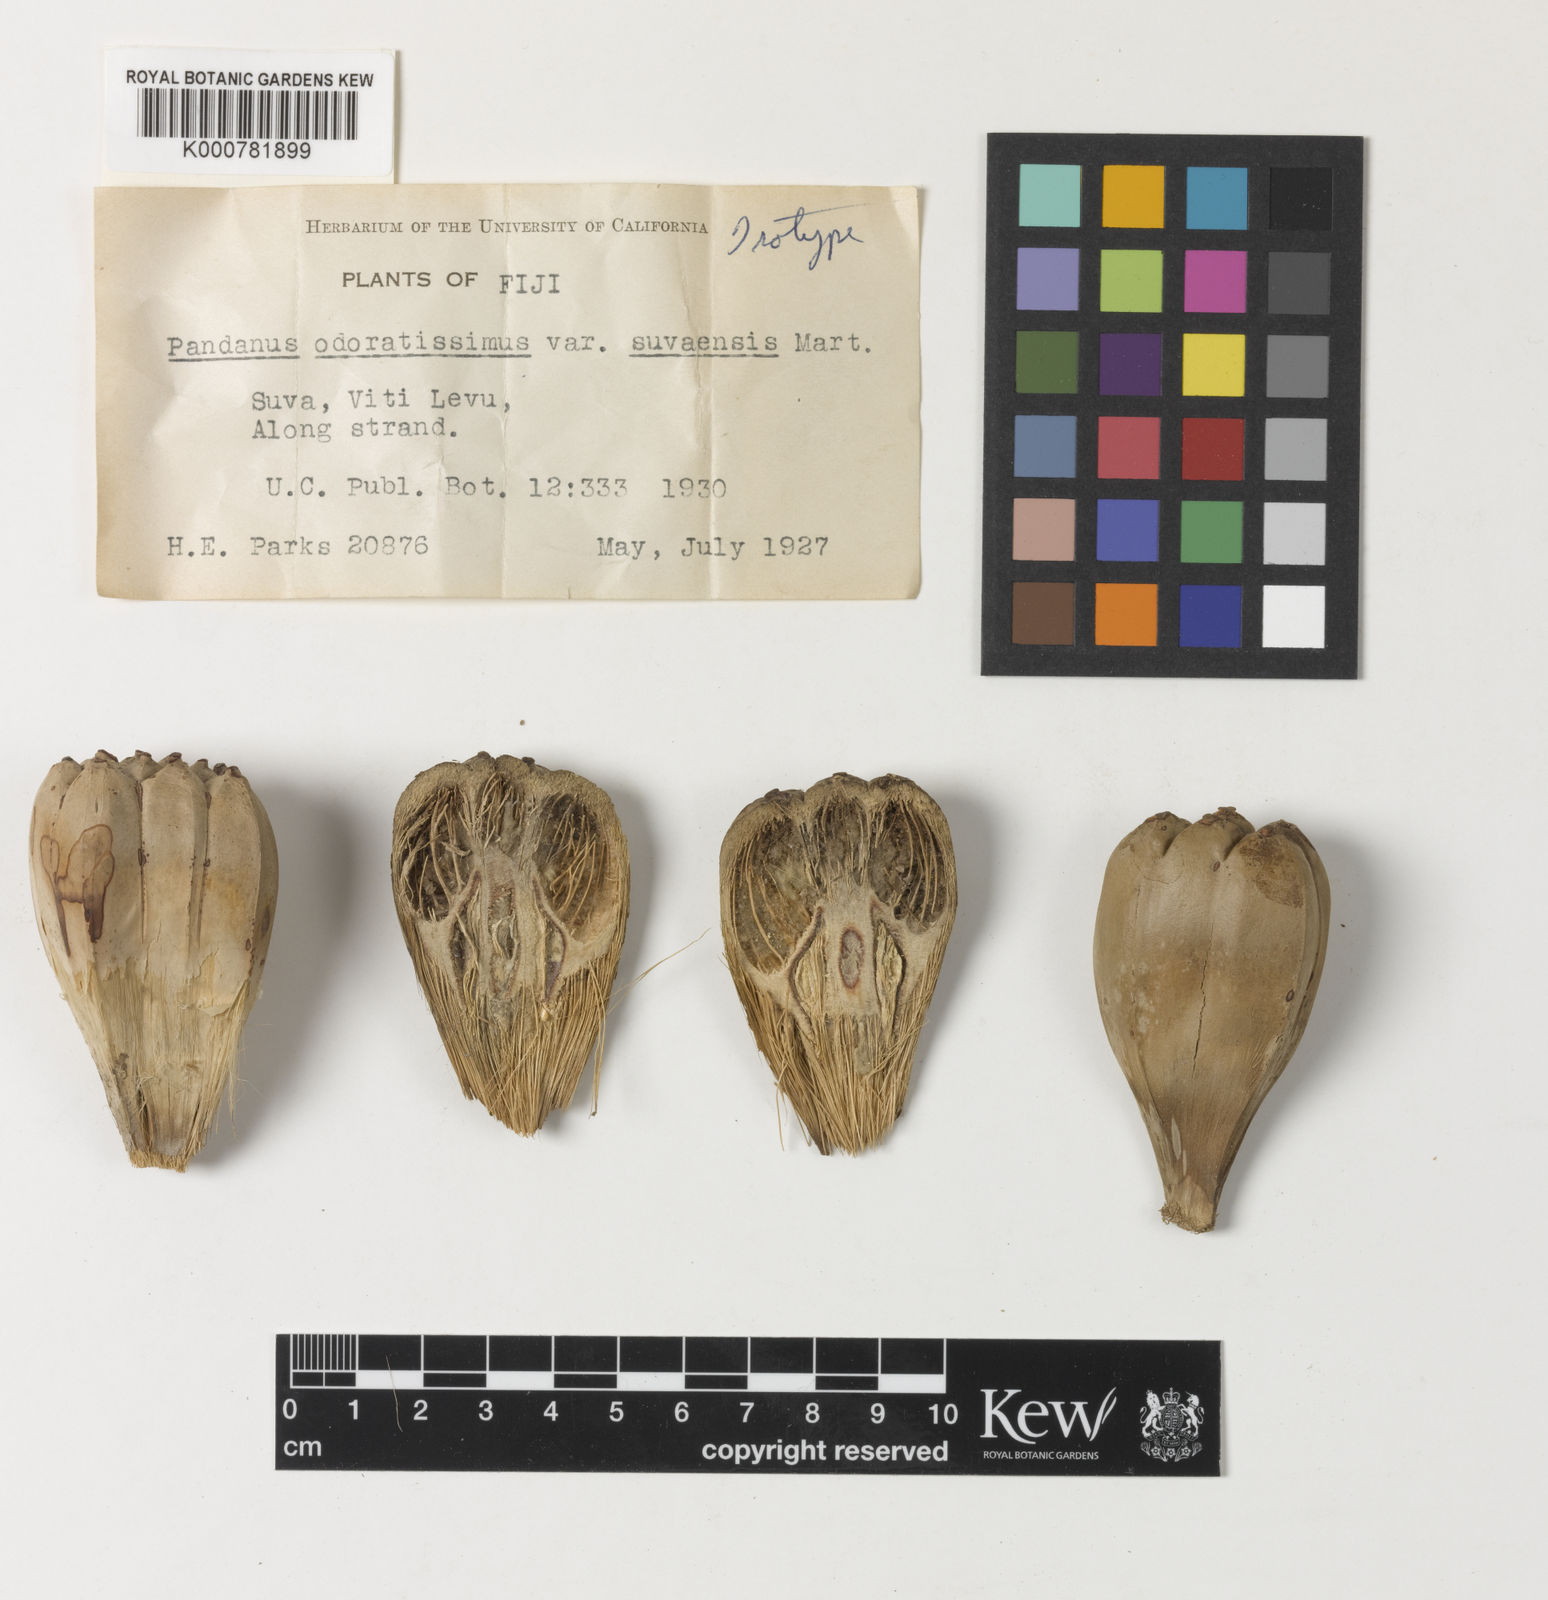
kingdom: Plantae
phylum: Tracheophyta
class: Liliopsida
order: Pandanales
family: Pandanaceae
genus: Pandanus
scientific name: Pandanus utilis
